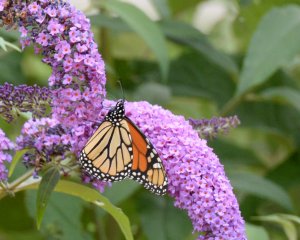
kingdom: Animalia
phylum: Arthropoda
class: Insecta
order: Lepidoptera
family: Nymphalidae
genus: Danaus
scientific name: Danaus plexippus
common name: Monarch
